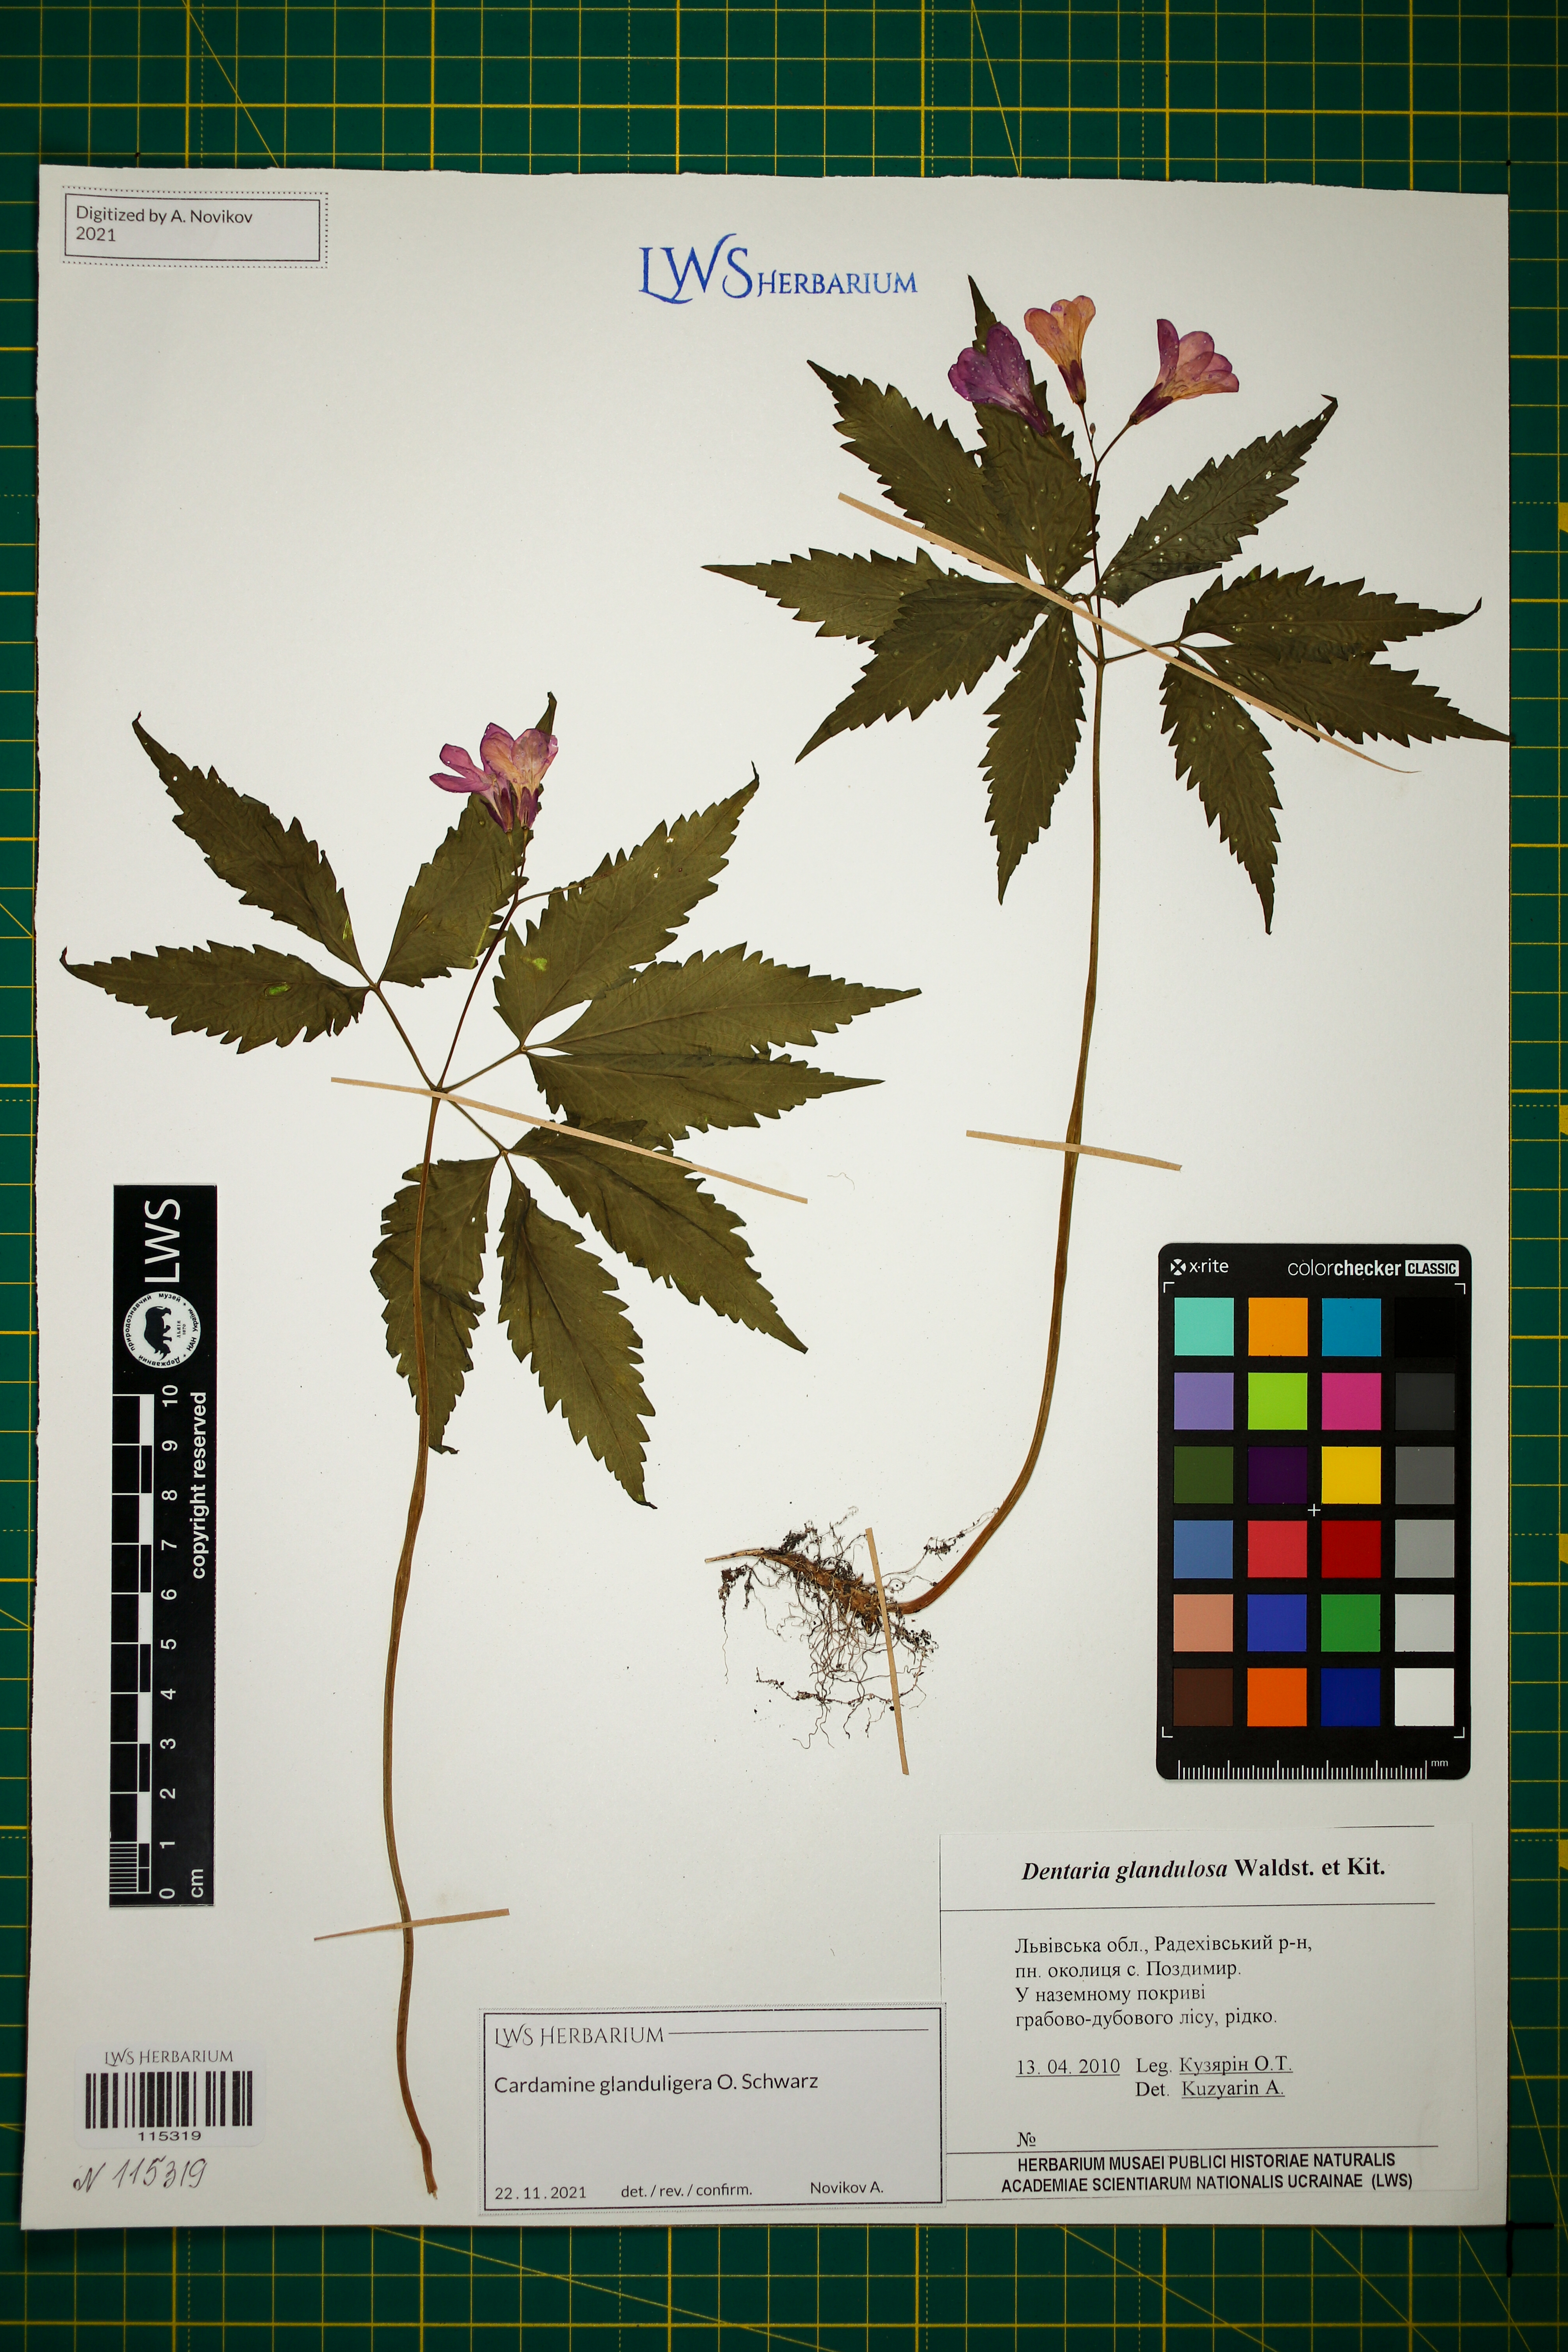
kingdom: Plantae
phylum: Tracheophyta
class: Magnoliopsida
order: Brassicales
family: Brassicaceae
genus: Cardamine
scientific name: Cardamine glanduligera
